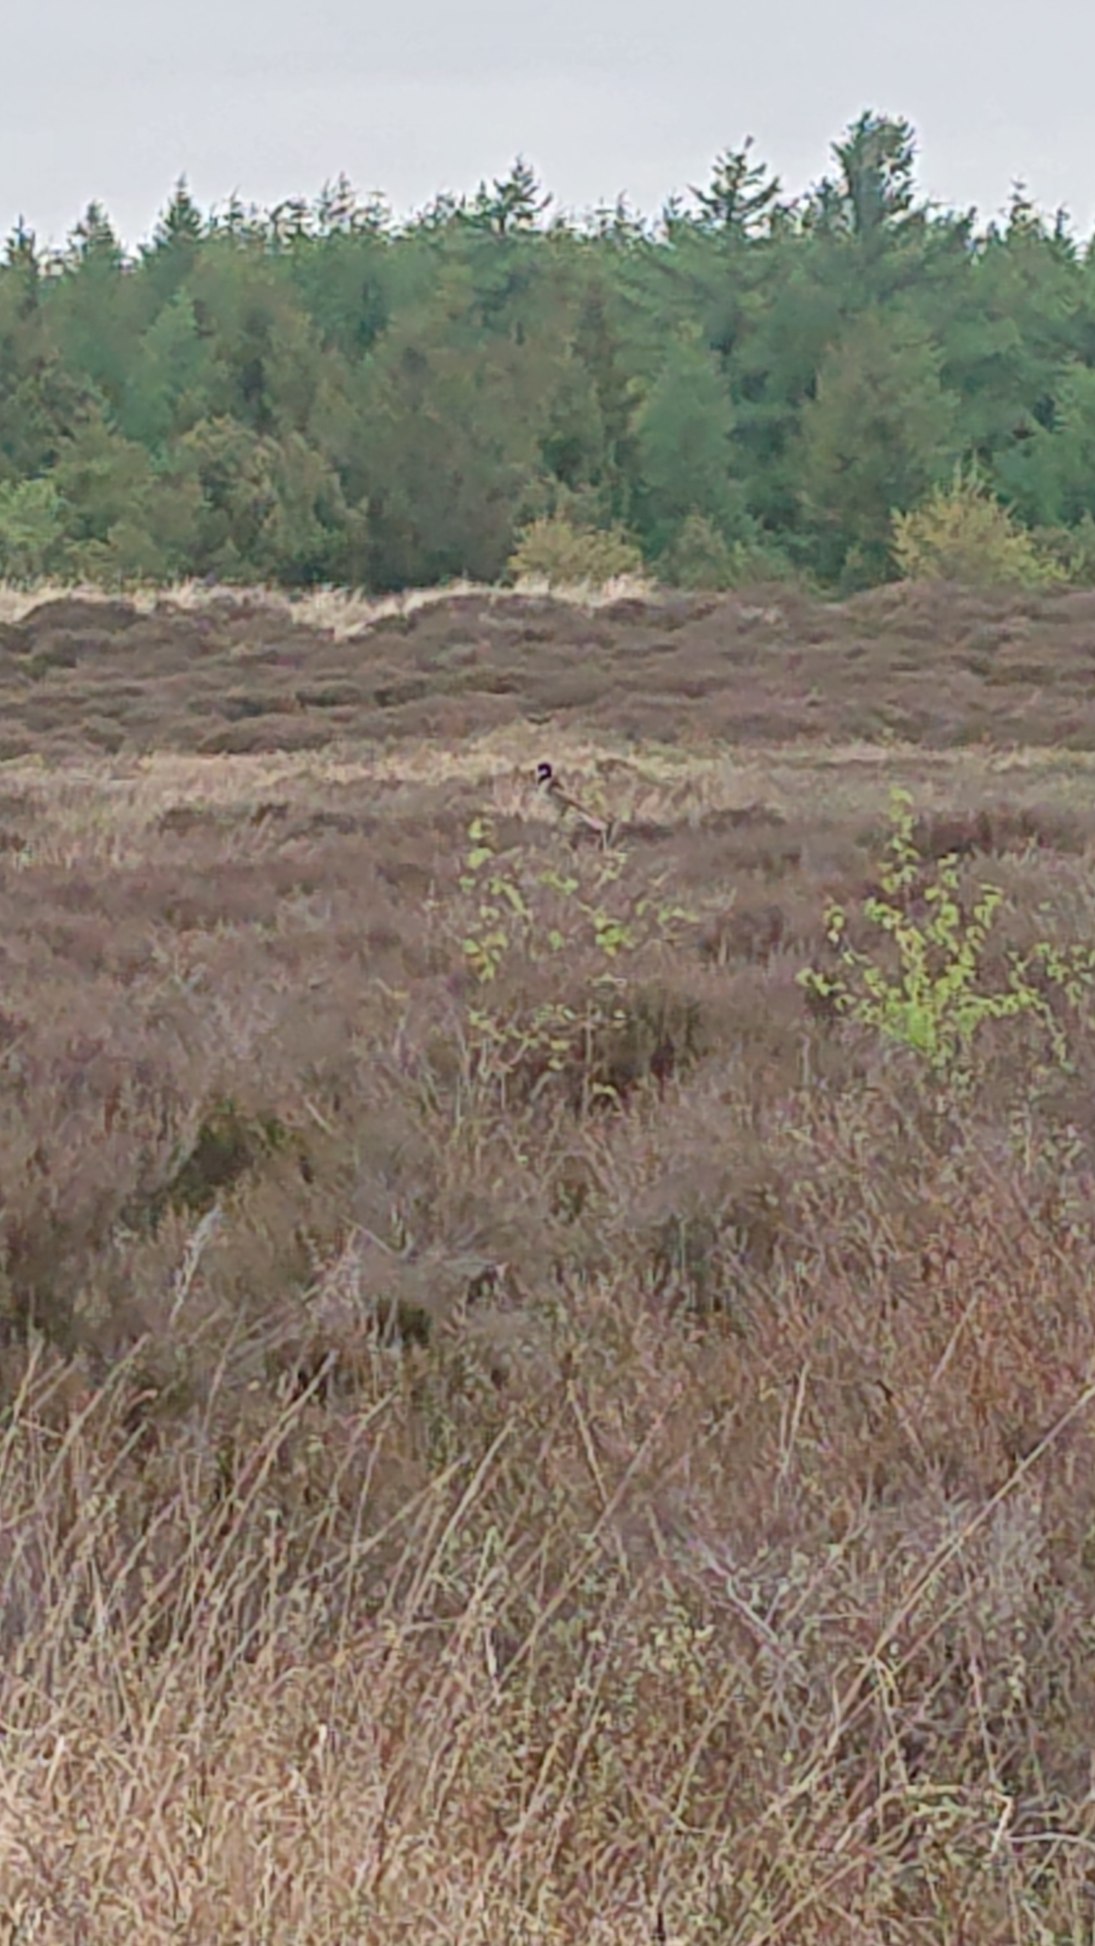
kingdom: Animalia
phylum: Chordata
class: Aves
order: Passeriformes
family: Muscicapidae
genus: Saxicola
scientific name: Saxicola rubicola
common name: Sortstrubet bynkefugl
